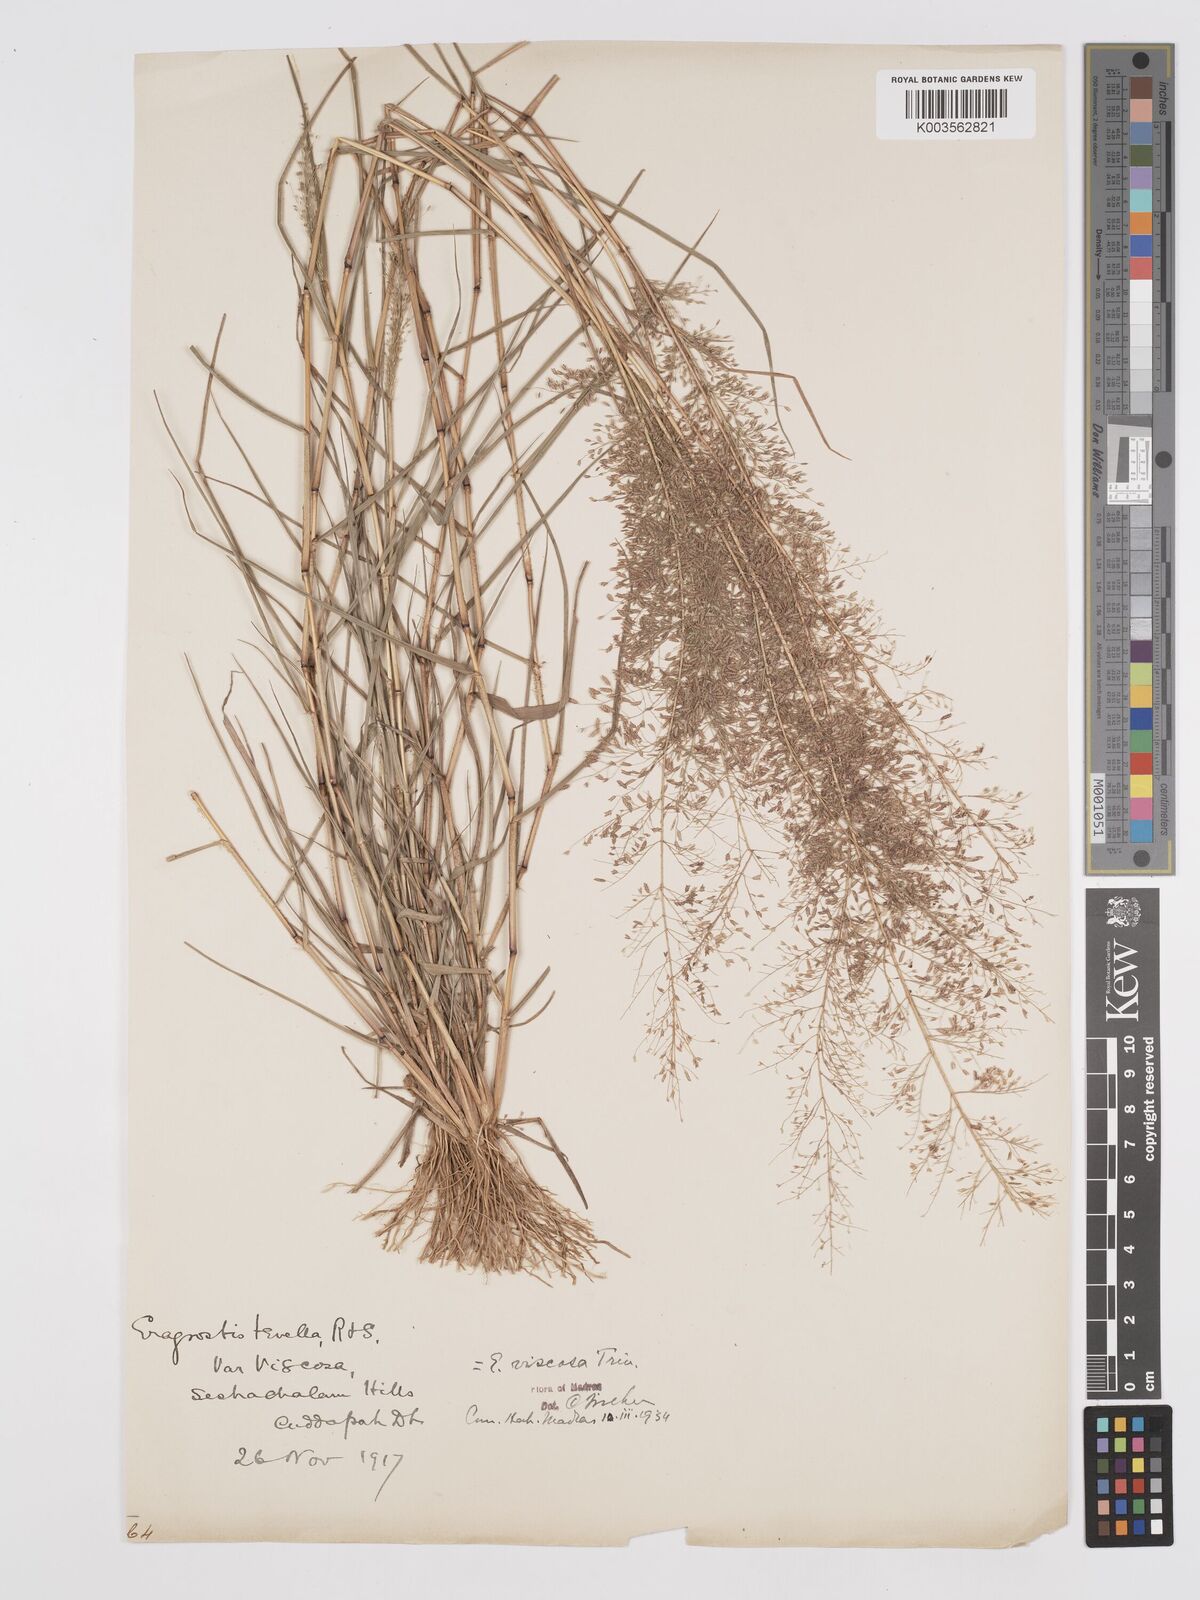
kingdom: Plantae
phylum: Tracheophyta
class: Liliopsida
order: Poales
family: Poaceae
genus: Eragrostis
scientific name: Eragrostis viscosa
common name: Sticky love grass
